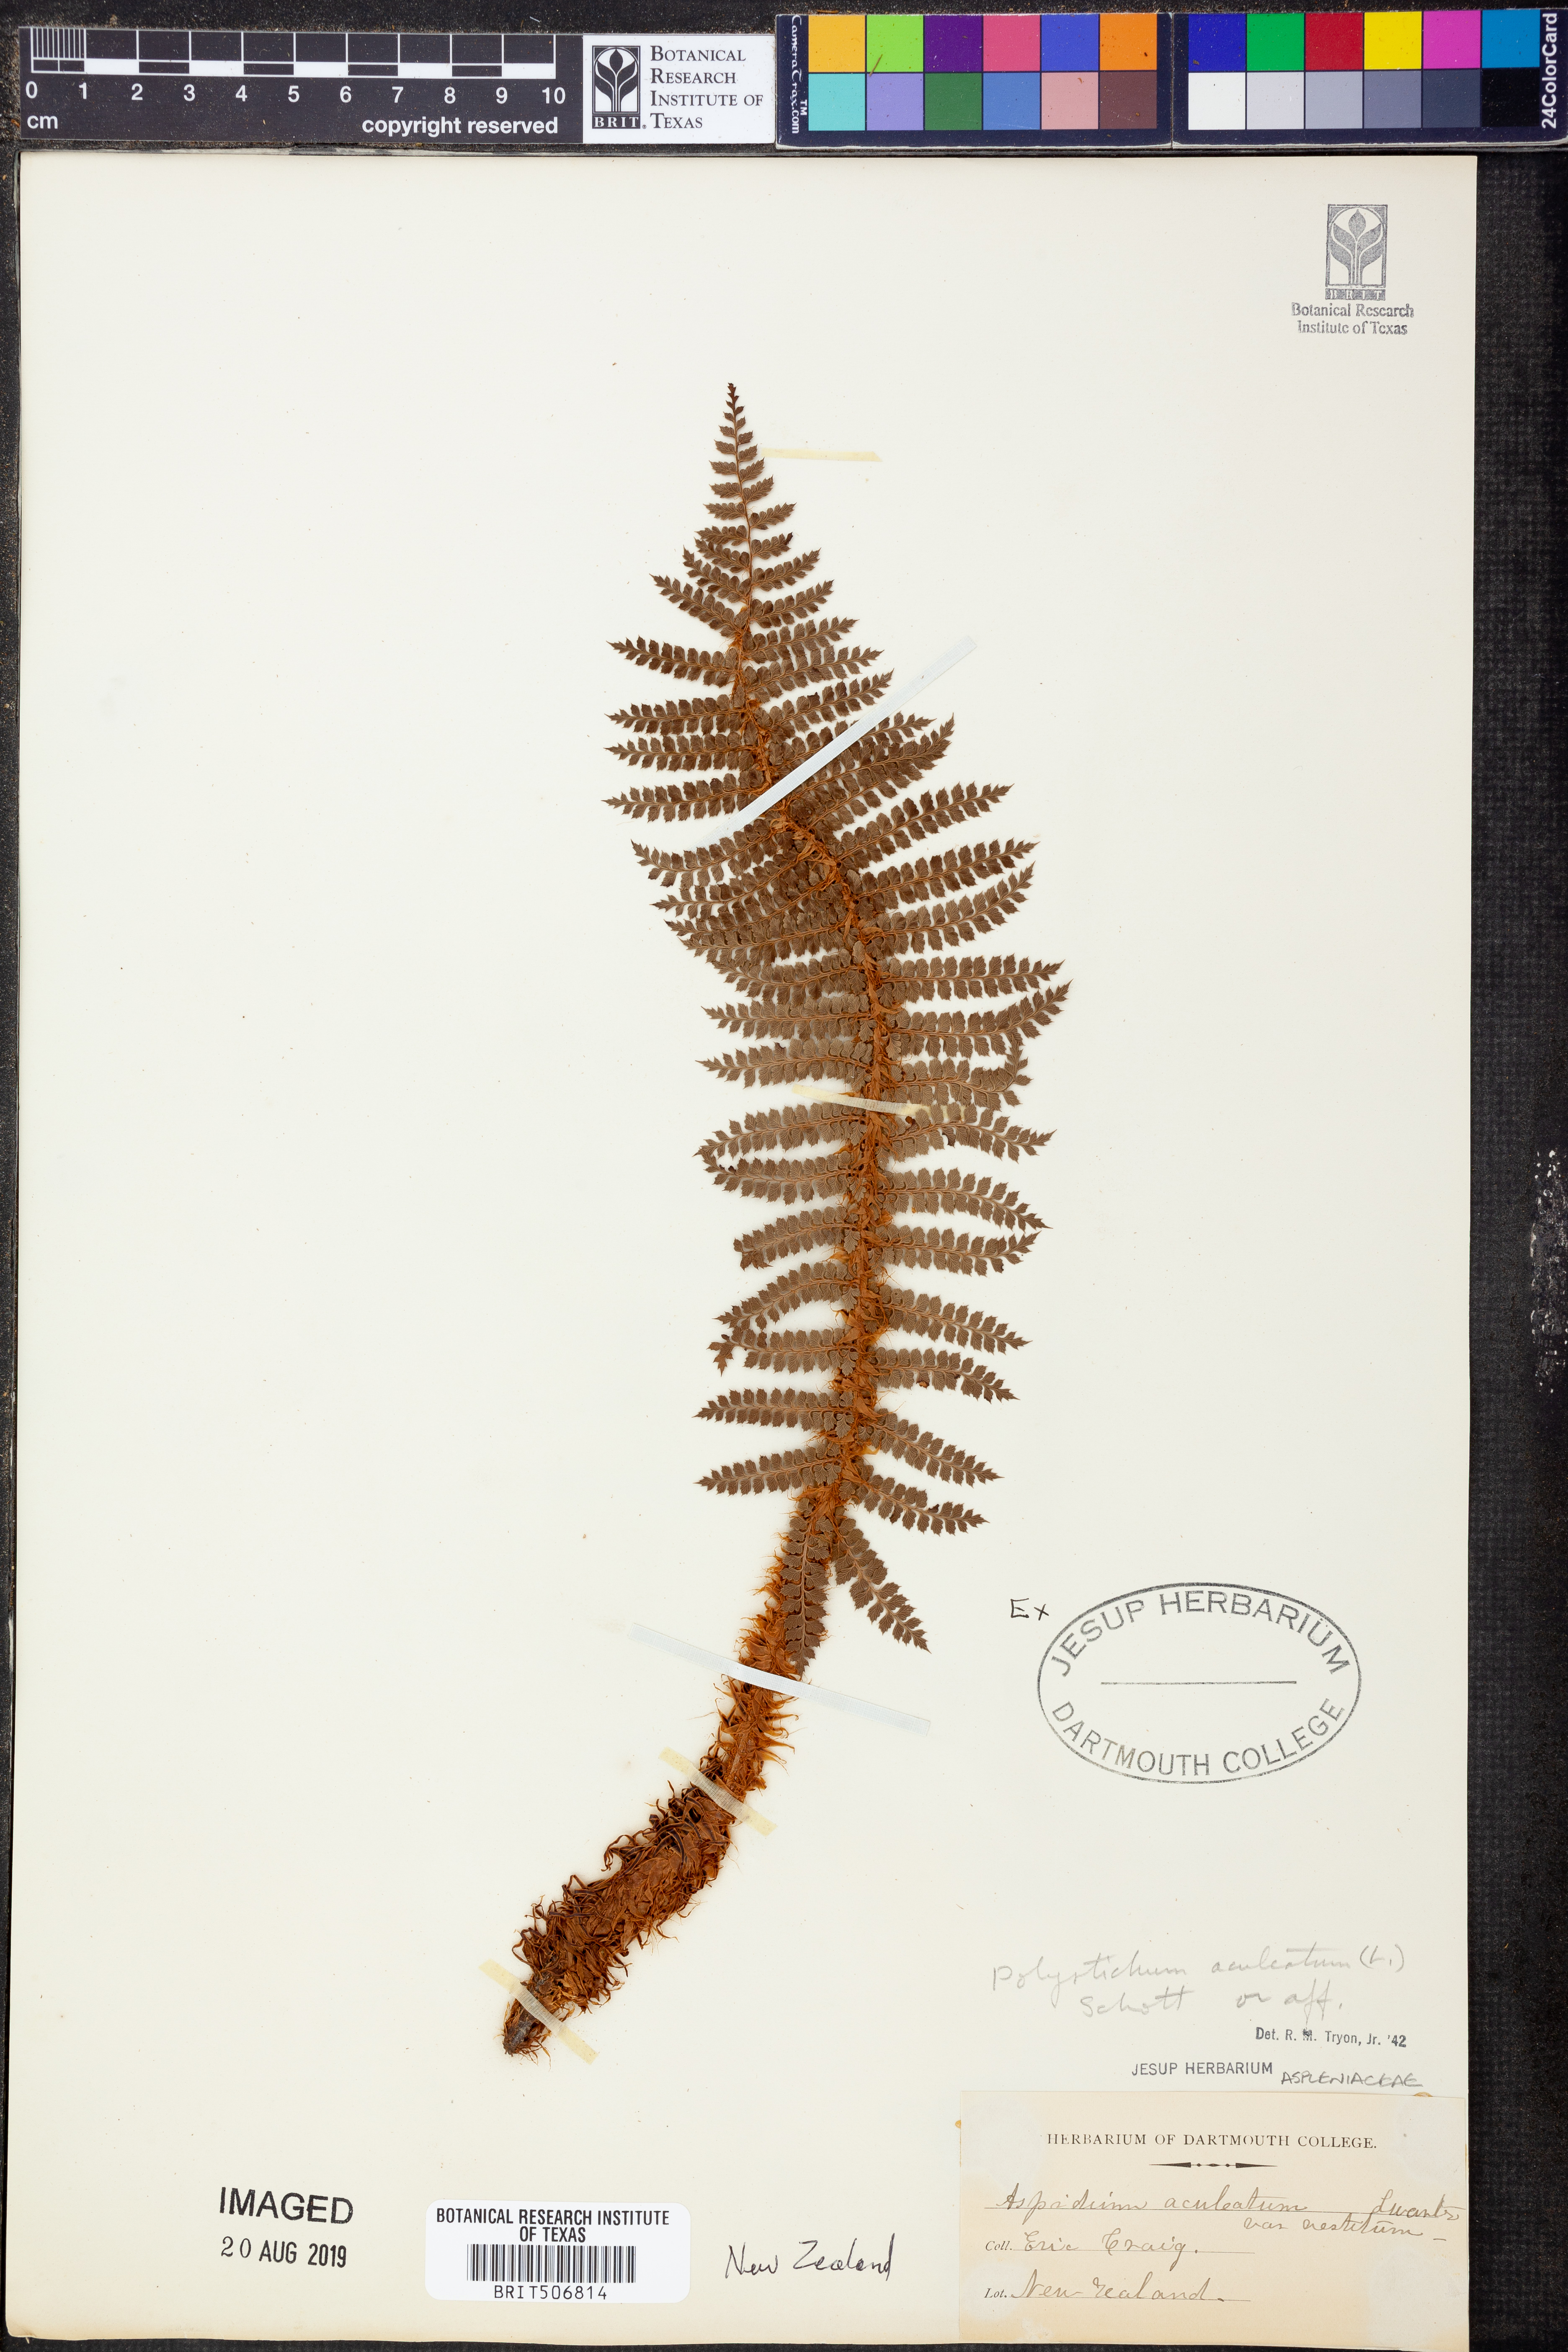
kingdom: Plantae
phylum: Tracheophyta
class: Polypodiopsida
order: Polypodiales
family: Dryopteridaceae
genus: Polystichum
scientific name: Polystichum aculeatum
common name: Hard shield-fern
